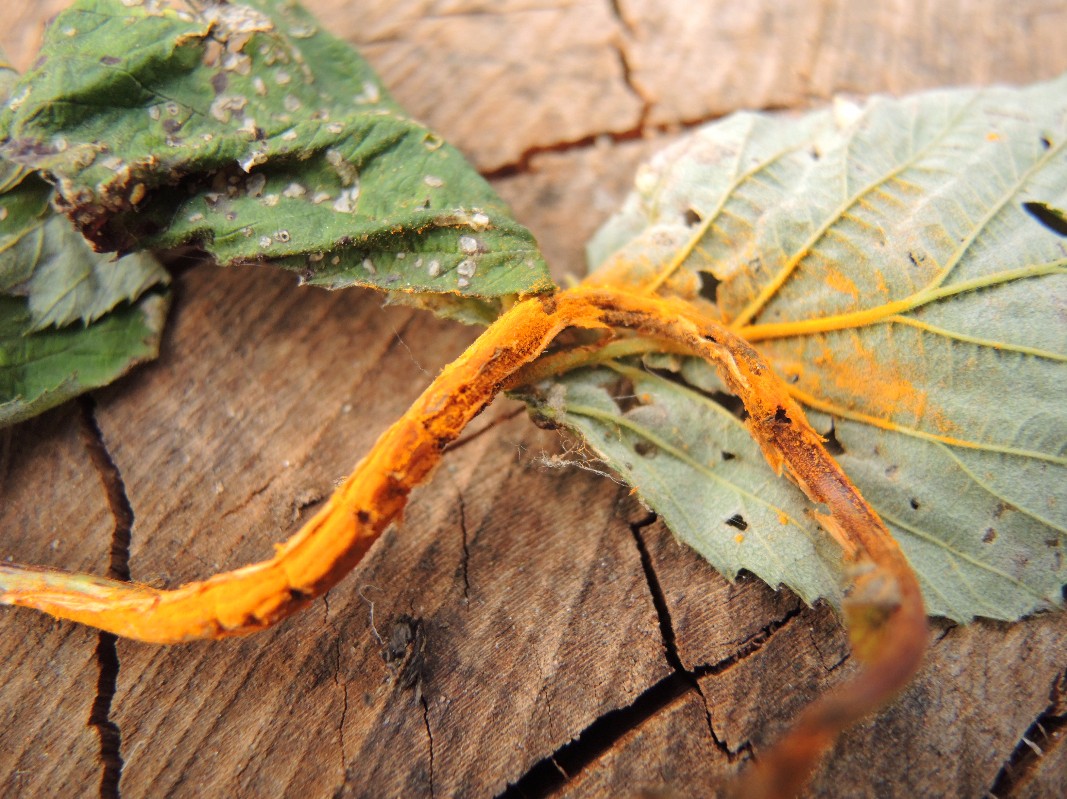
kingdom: Fungi
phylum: Basidiomycota
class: Pucciniomycetes
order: Pucciniales
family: Raveneliaceae
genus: Triphragmium
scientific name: Triphragmium ulmariae
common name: almindelig mjødurtrust
